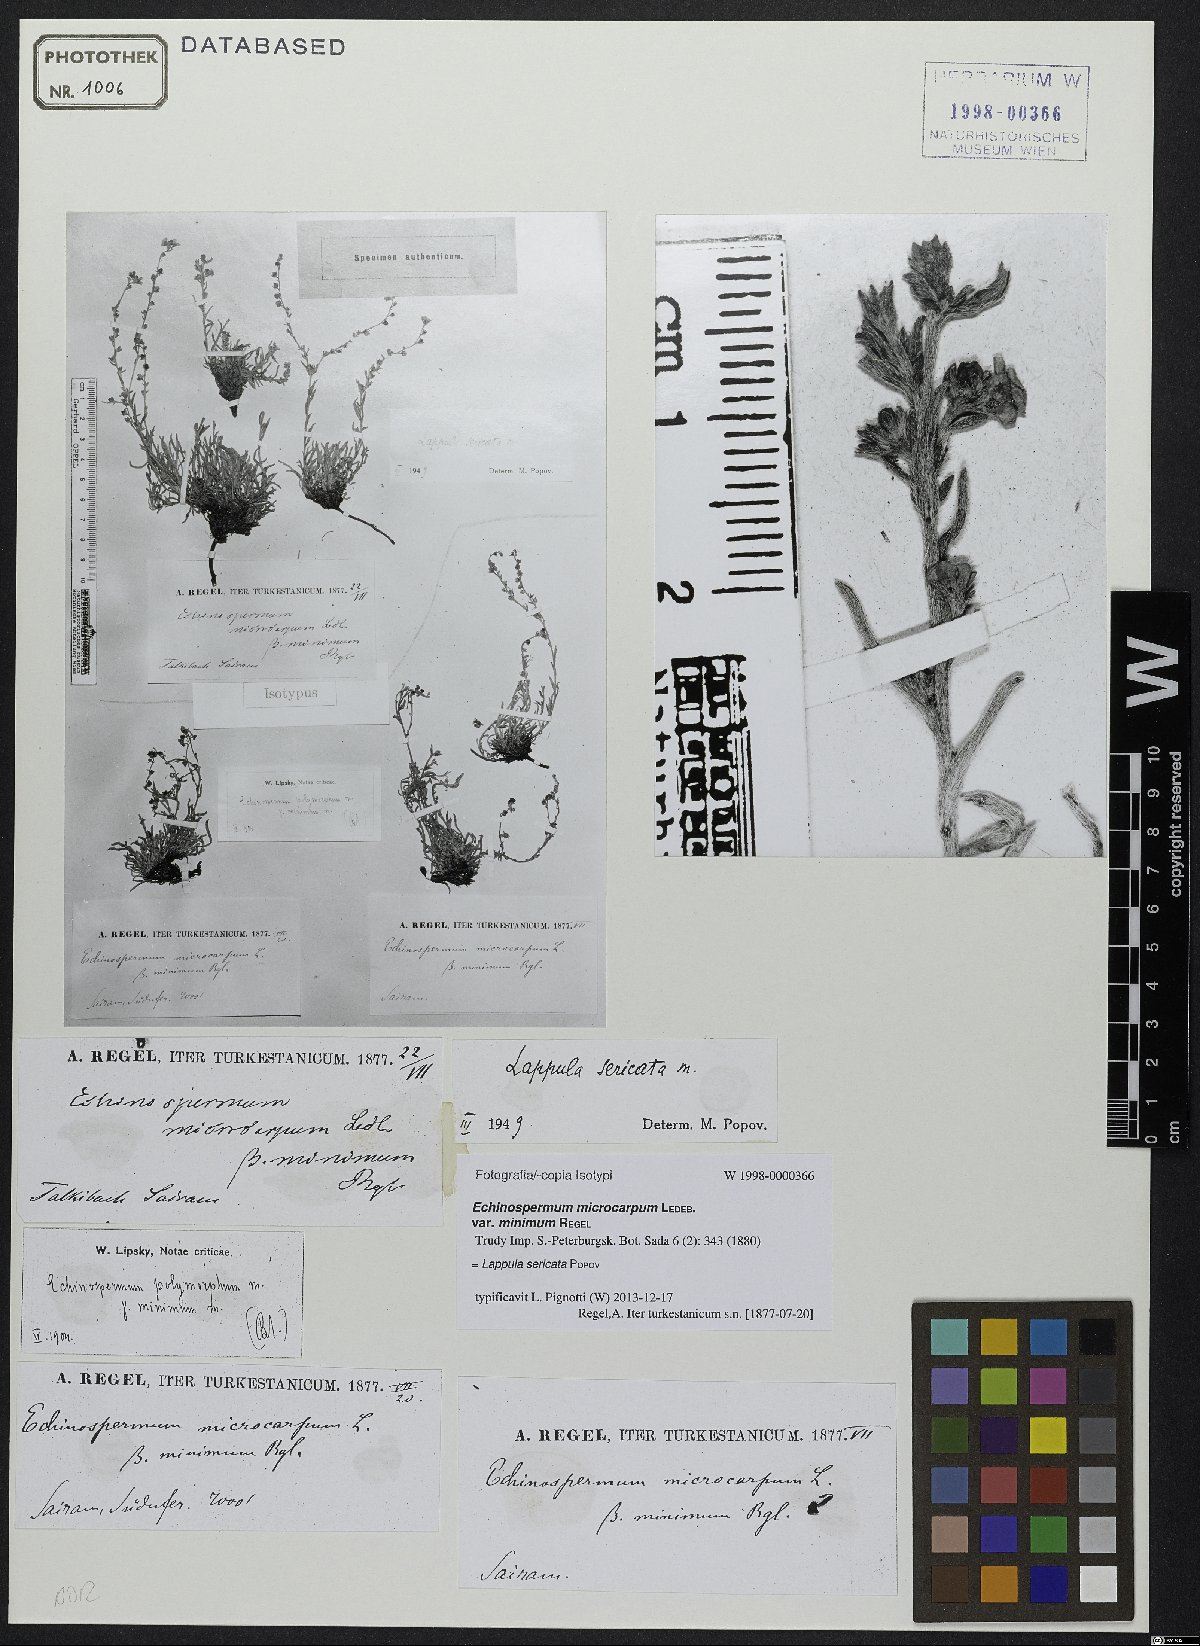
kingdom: Plantae
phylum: Tracheophyta
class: Magnoliopsida
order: Boraginales
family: Boraginaceae
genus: Lappula
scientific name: Lappula sericata
